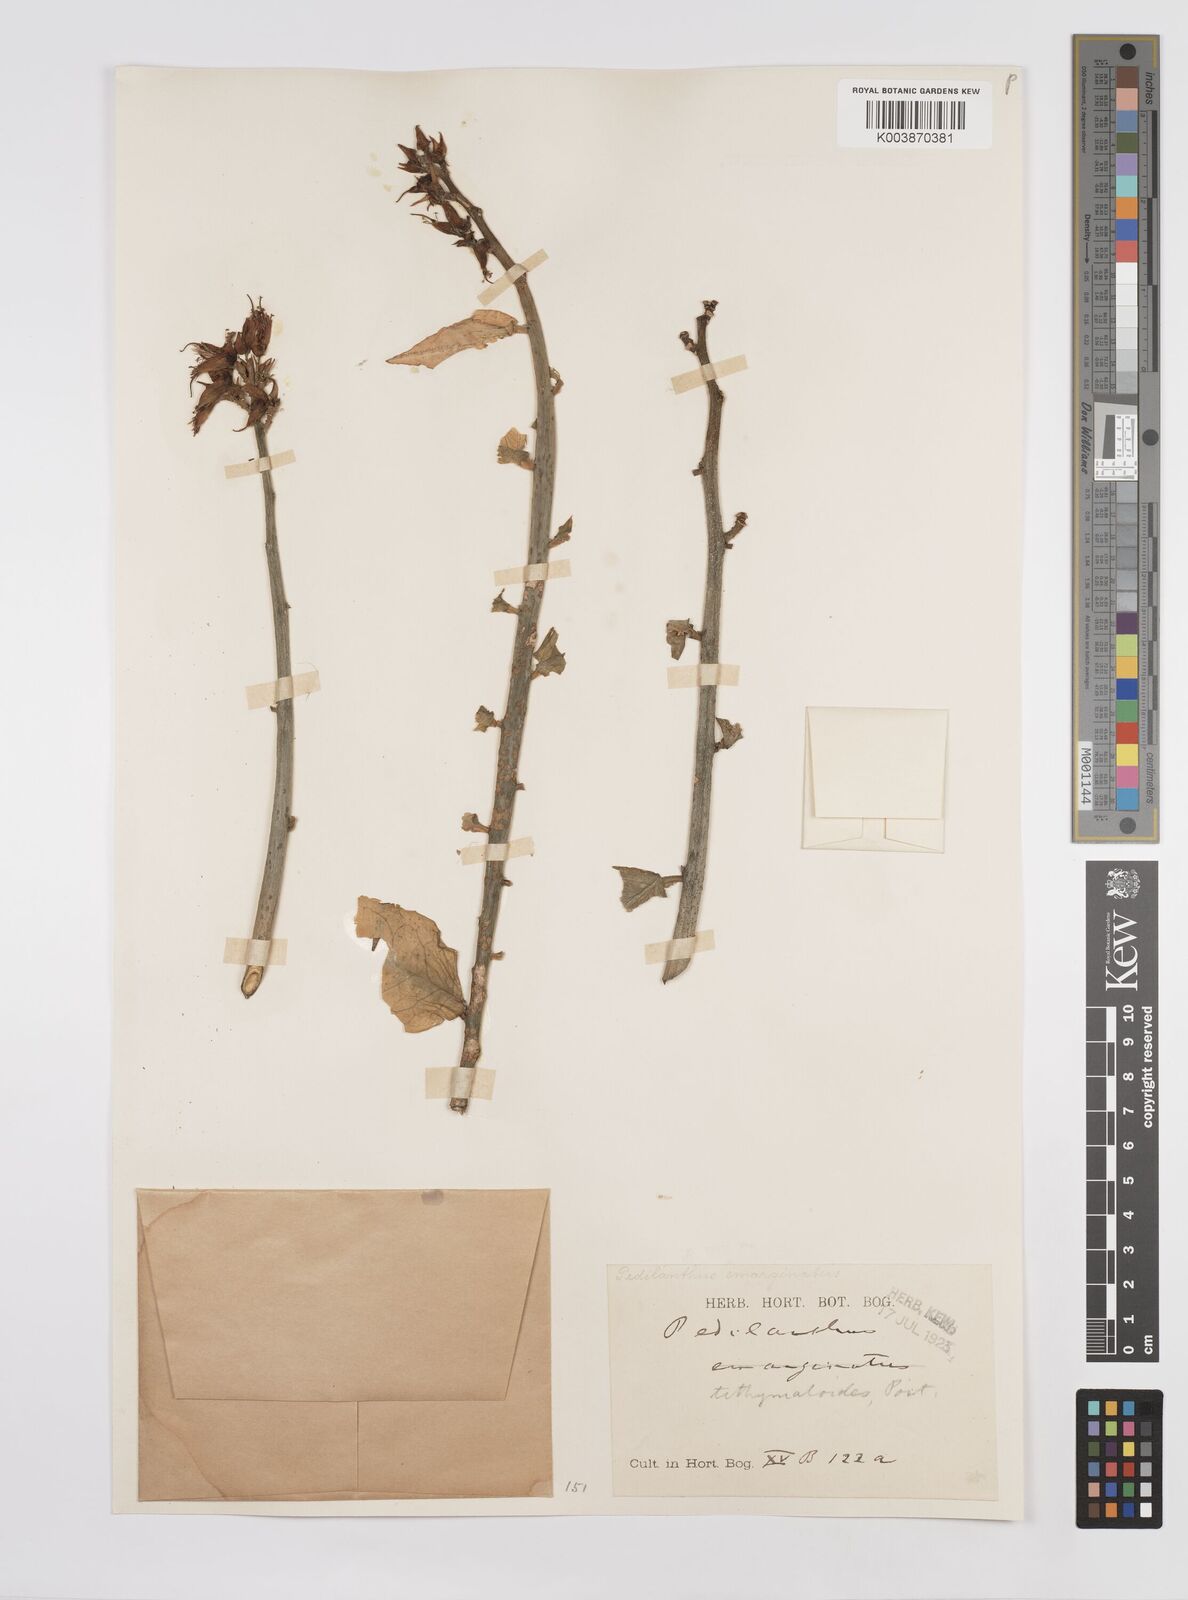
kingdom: Plantae
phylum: Tracheophyta
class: Magnoliopsida
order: Malpighiales
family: Euphorbiaceae
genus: Euphorbia
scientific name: Euphorbia tithymaloides
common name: Slipperplant
